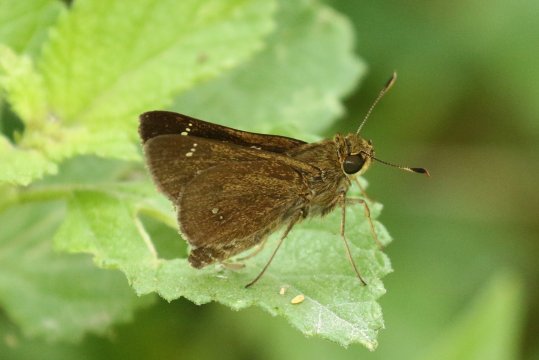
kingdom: Animalia
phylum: Arthropoda
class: Insecta
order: Lepidoptera
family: Hesperiidae
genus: Decinea
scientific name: Decinea percosius
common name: Double-dotted Skipper
